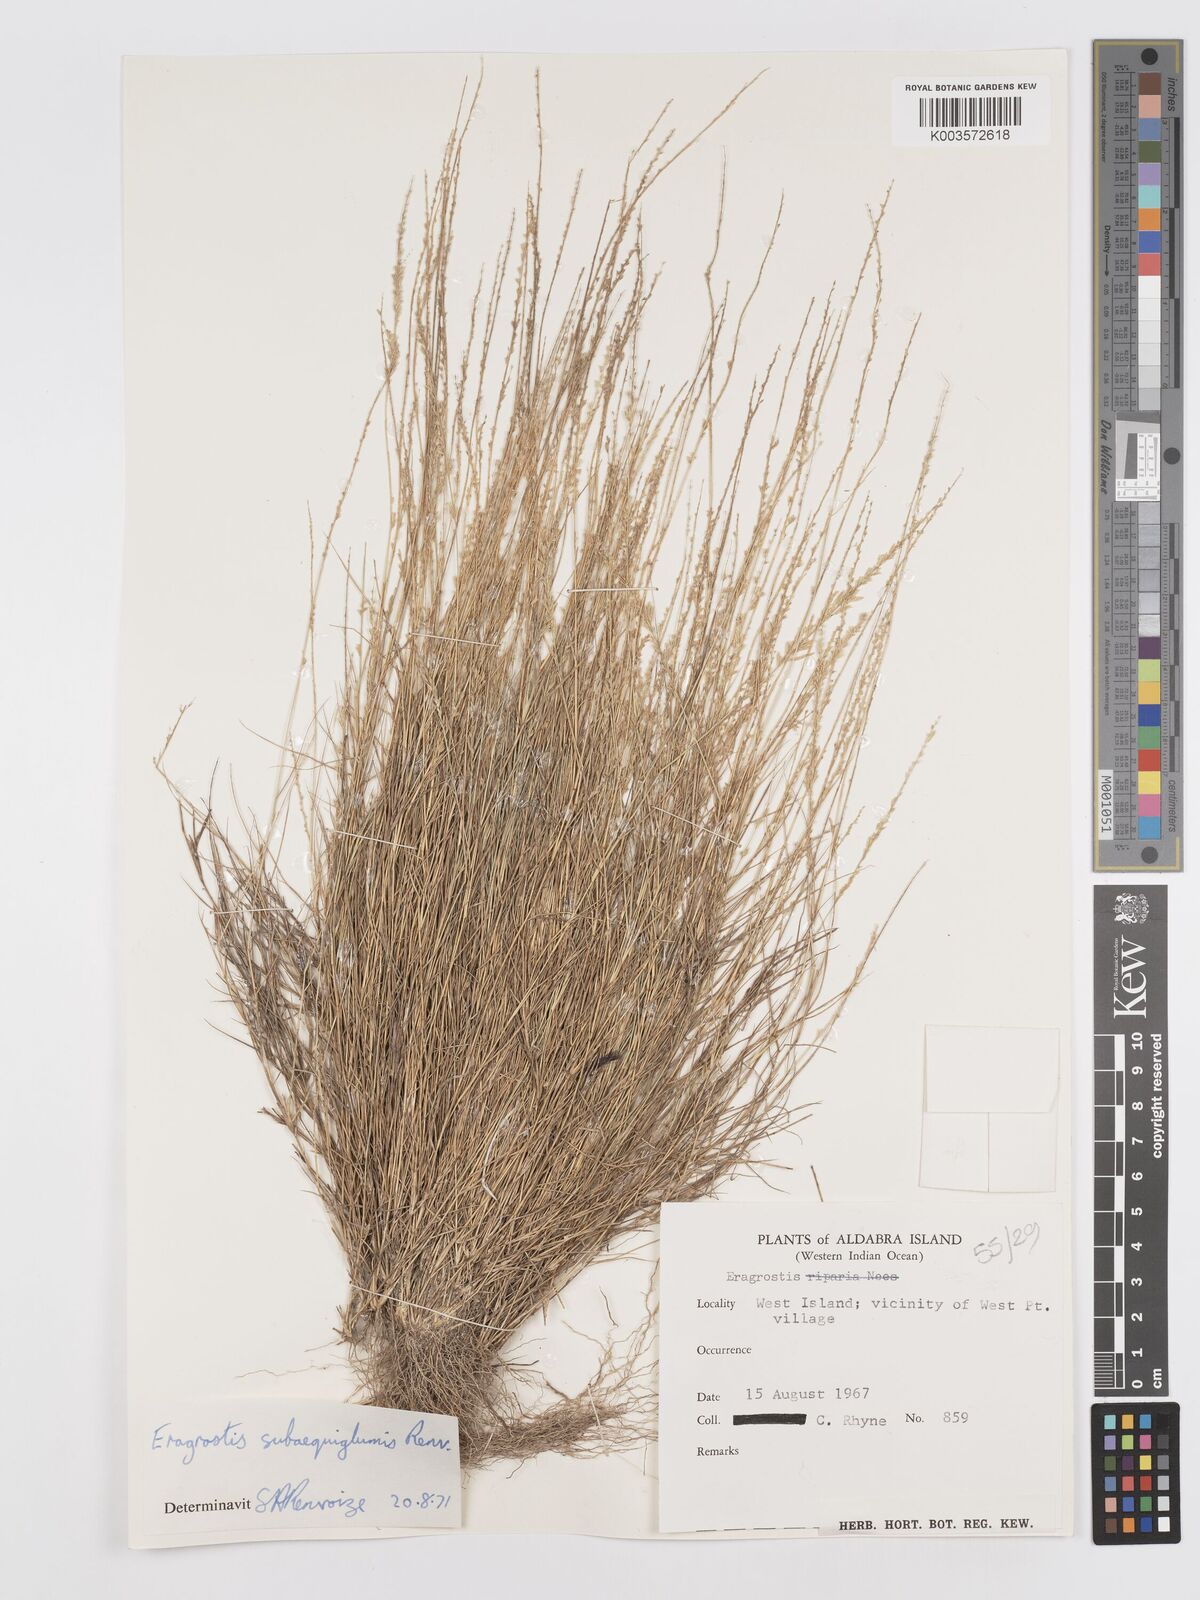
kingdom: Plantae
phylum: Tracheophyta
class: Liliopsida
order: Poales
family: Poaceae
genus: Eragrostis
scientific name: Eragrostis subaequiglumis
